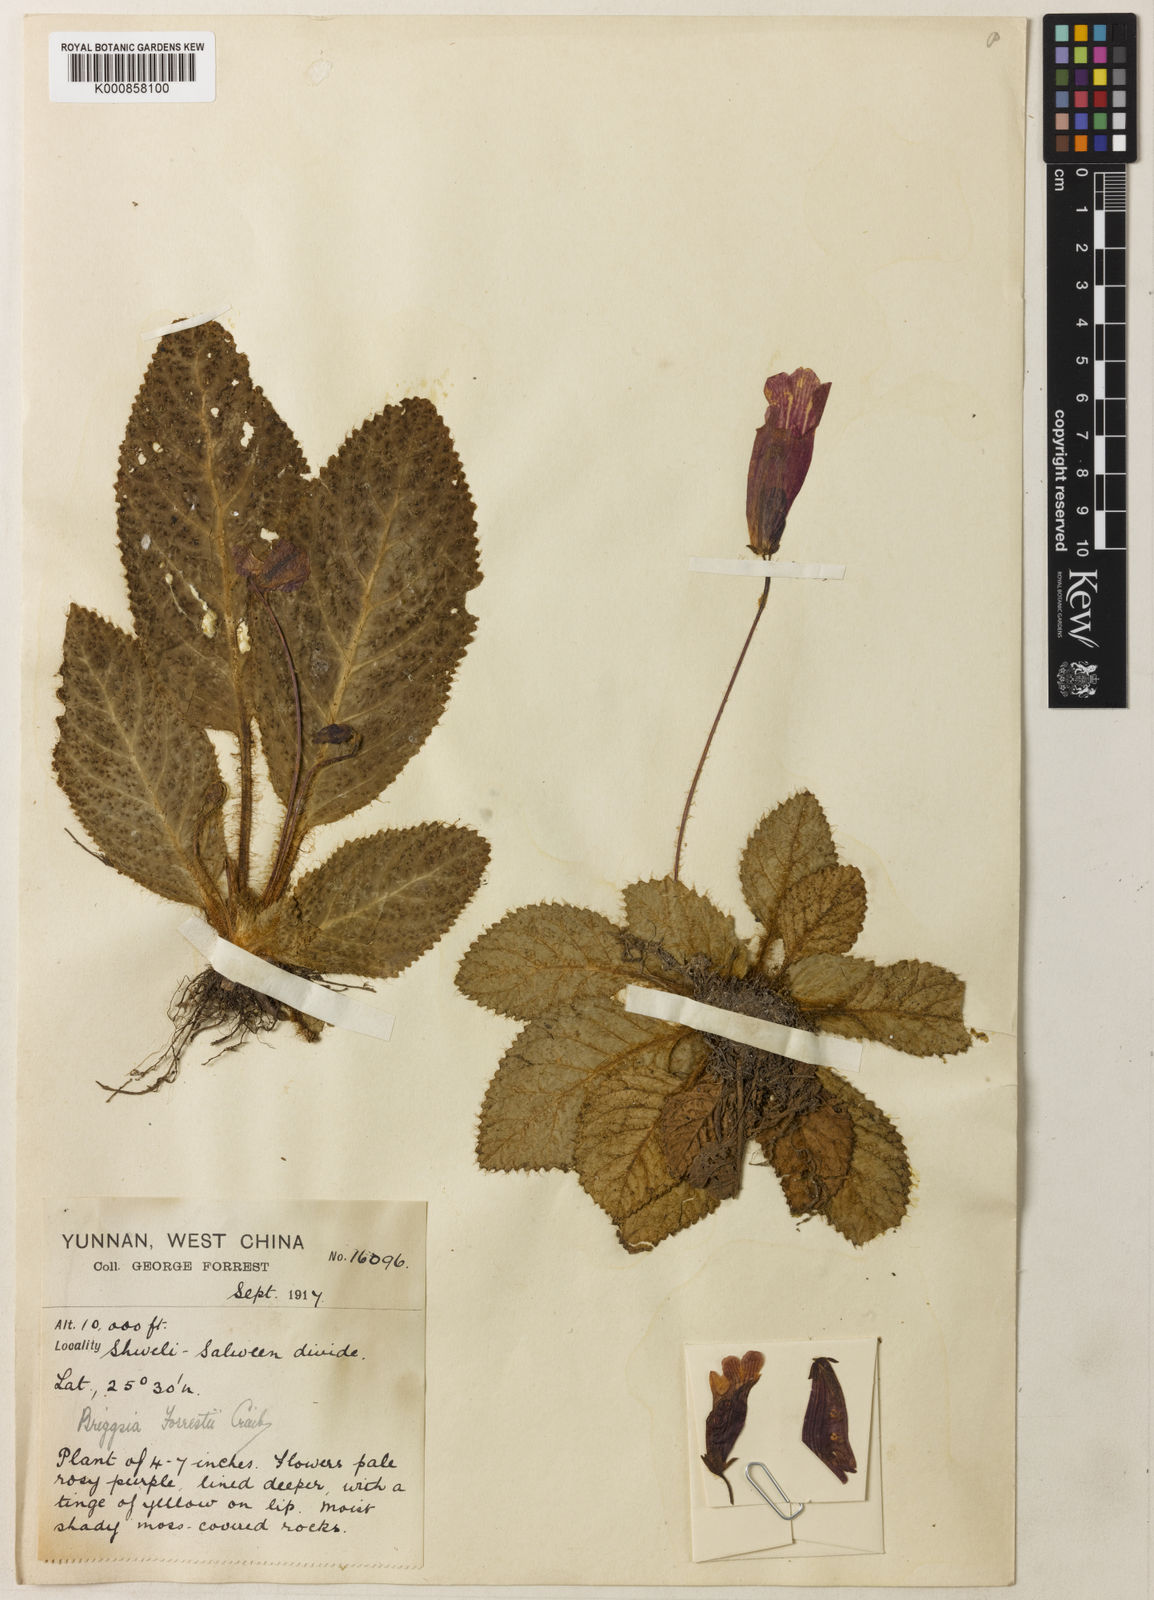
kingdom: Plantae
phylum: Tracheophyta
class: Magnoliopsida
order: Lamiales
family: Gesneriaceae
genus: Oreocharis
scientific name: Oreocharis
